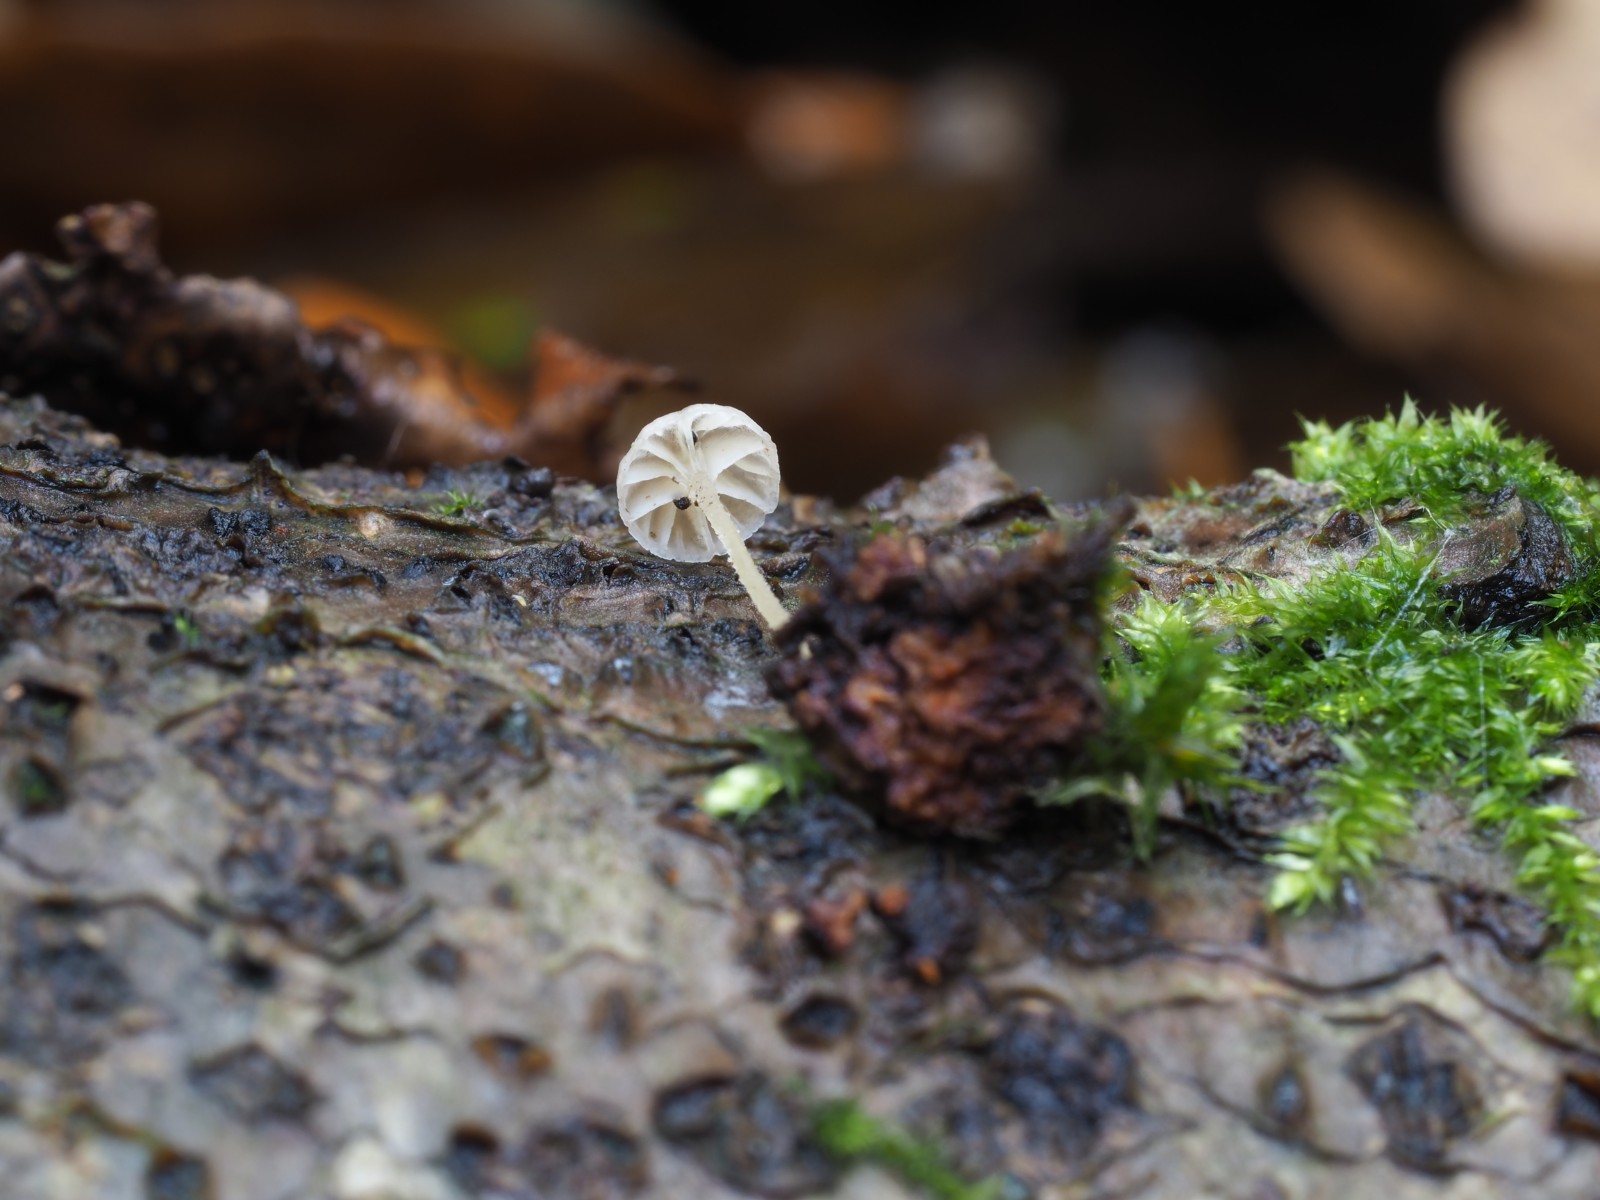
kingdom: Fungi
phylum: Basidiomycota
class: Agaricomycetes
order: Agaricales
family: Porotheleaceae
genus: Phloeomana
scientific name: Phloeomana speirea
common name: kvist-huesvamp
